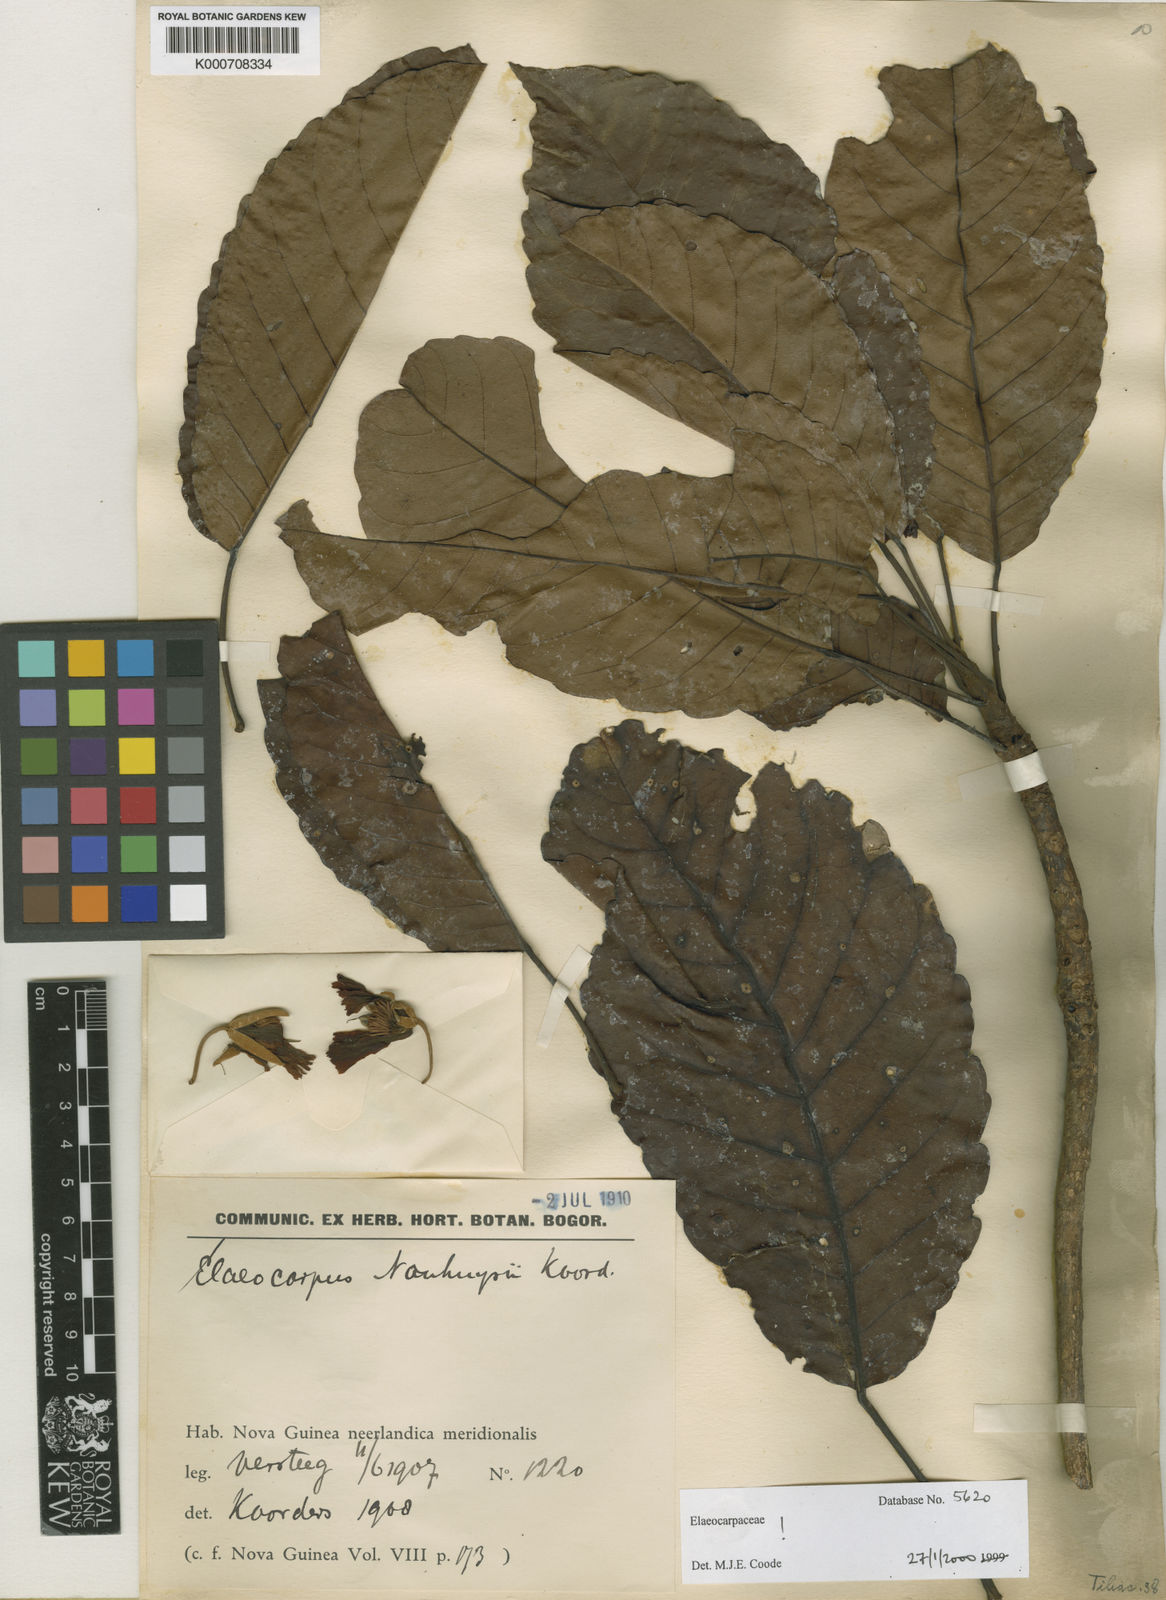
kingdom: Plantae
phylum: Tracheophyta
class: Magnoliopsida
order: Oxalidales
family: Elaeocarpaceae
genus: Elaeocarpus
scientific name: Elaeocarpus nouhuysii
